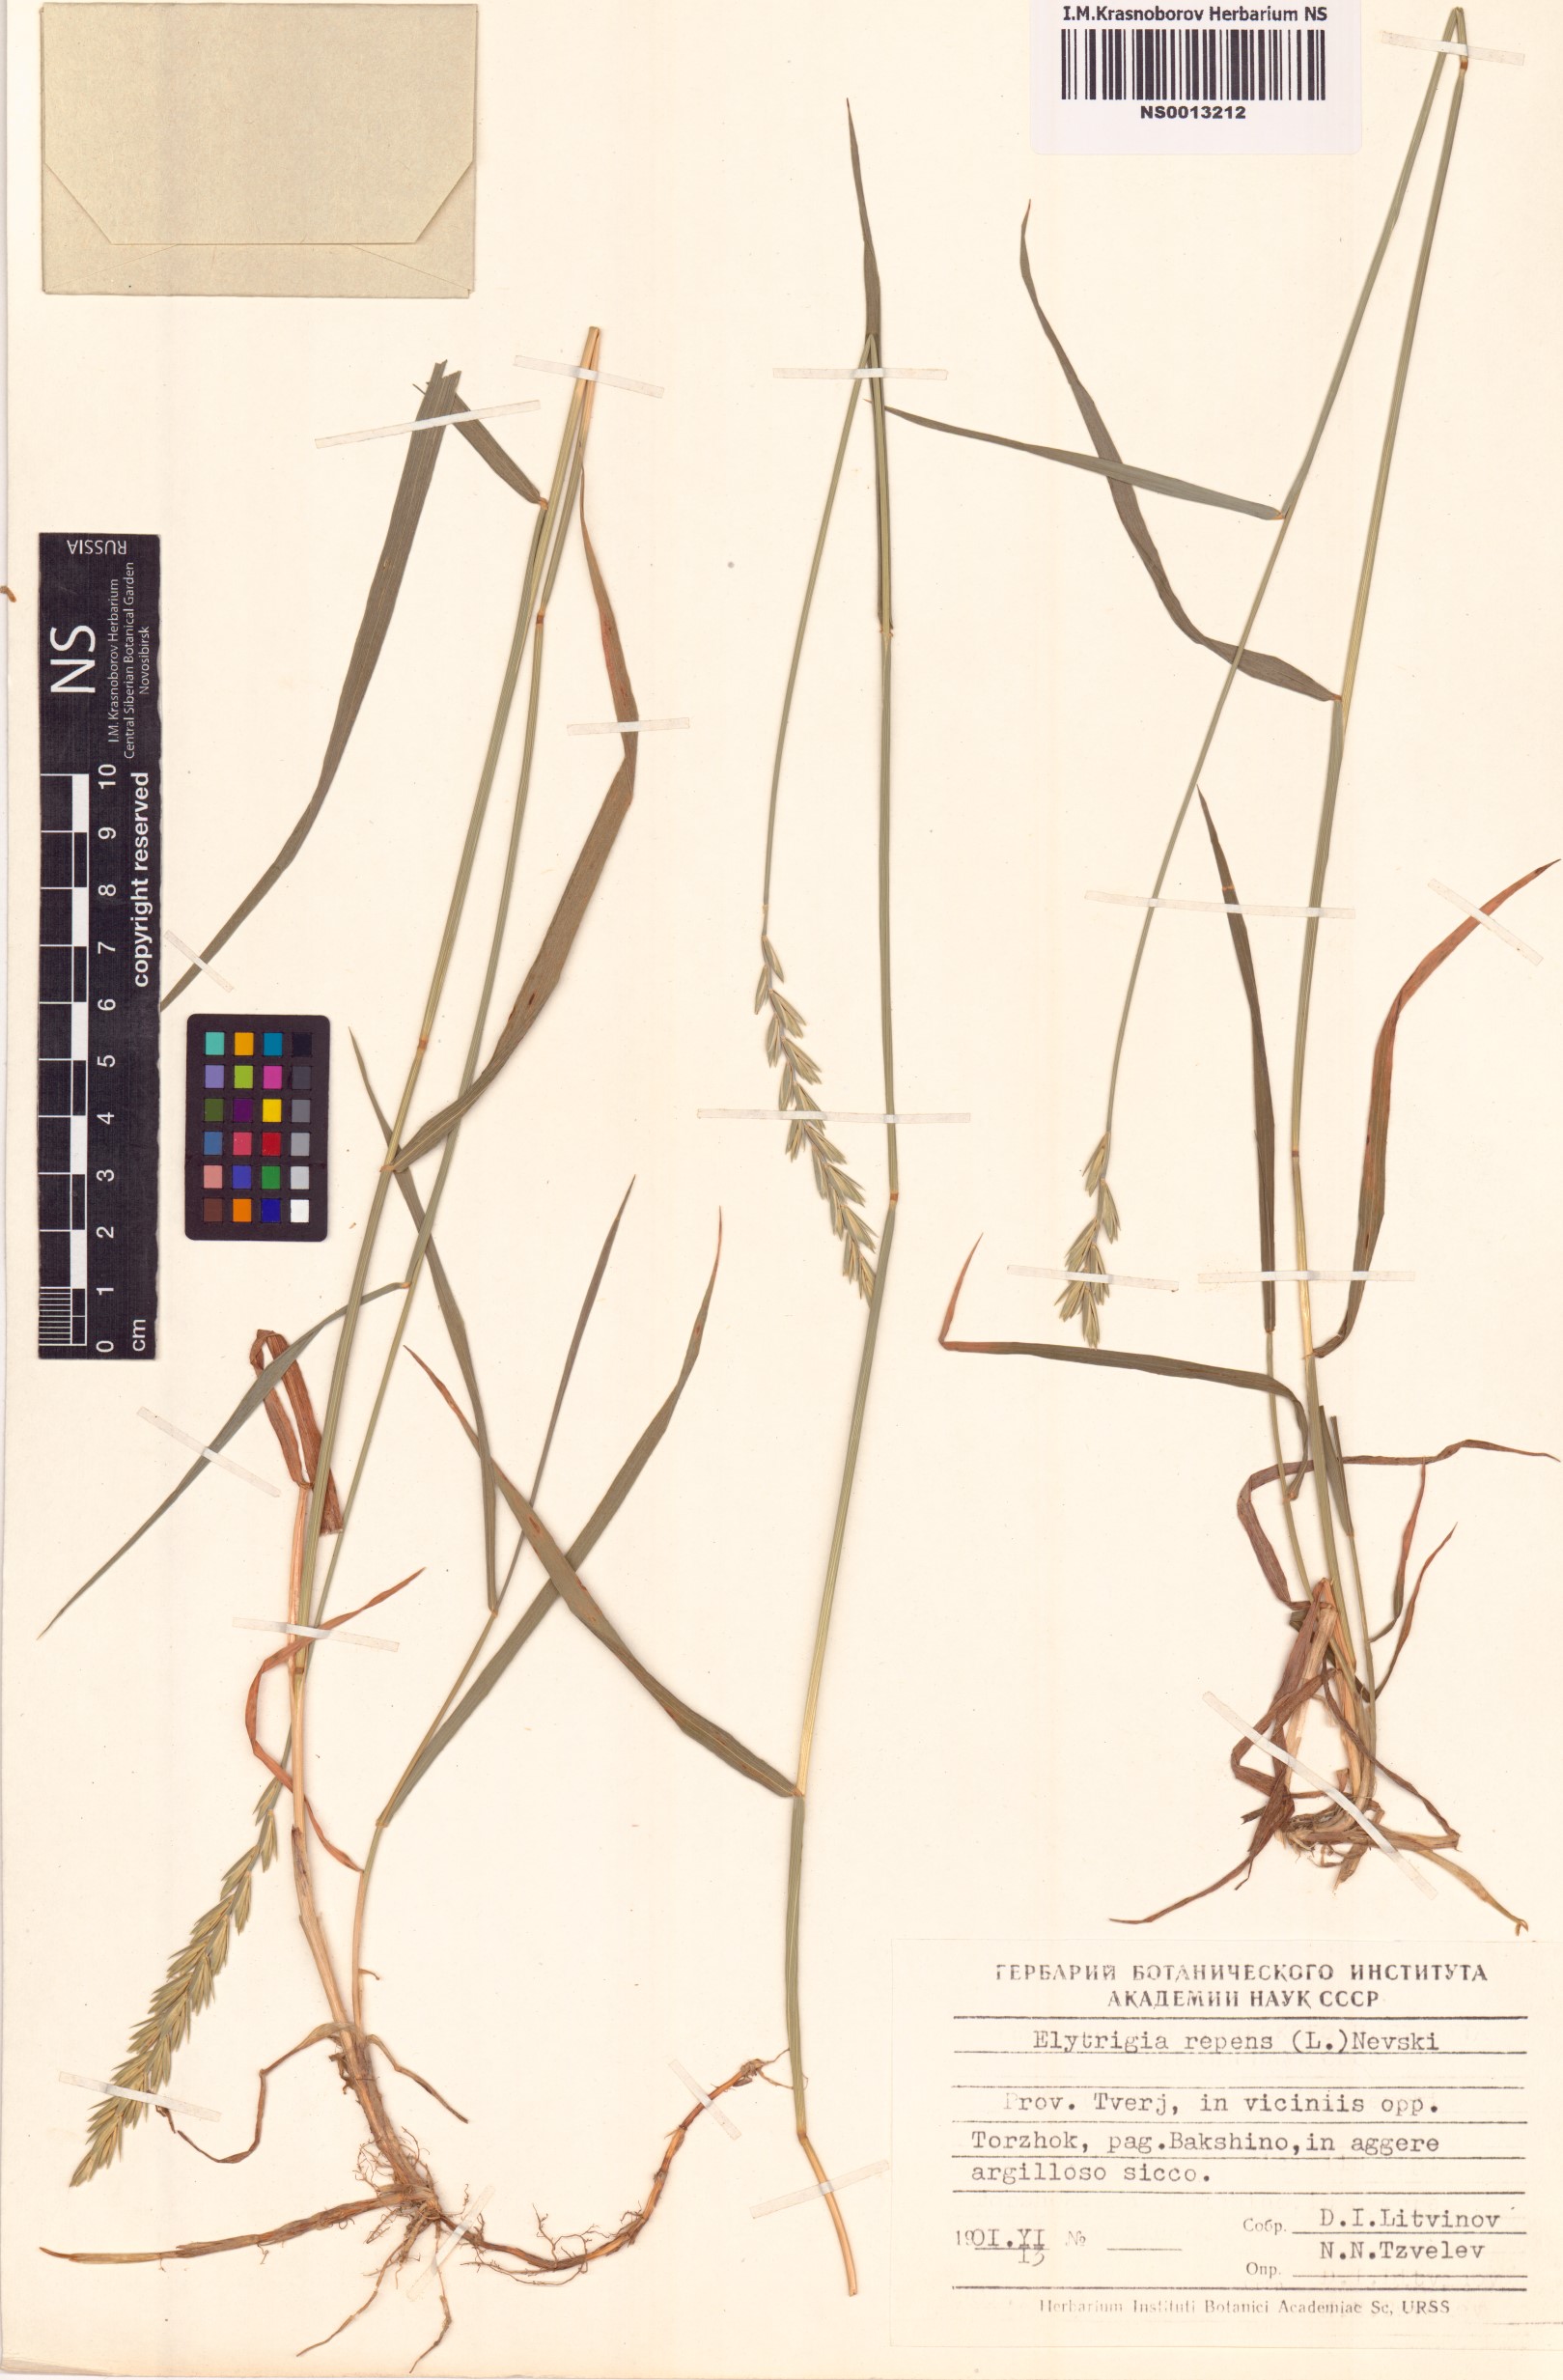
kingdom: Plantae
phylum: Tracheophyta
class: Liliopsida
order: Poales
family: Poaceae
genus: Elymus
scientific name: Elymus repens
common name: Quackgrass
